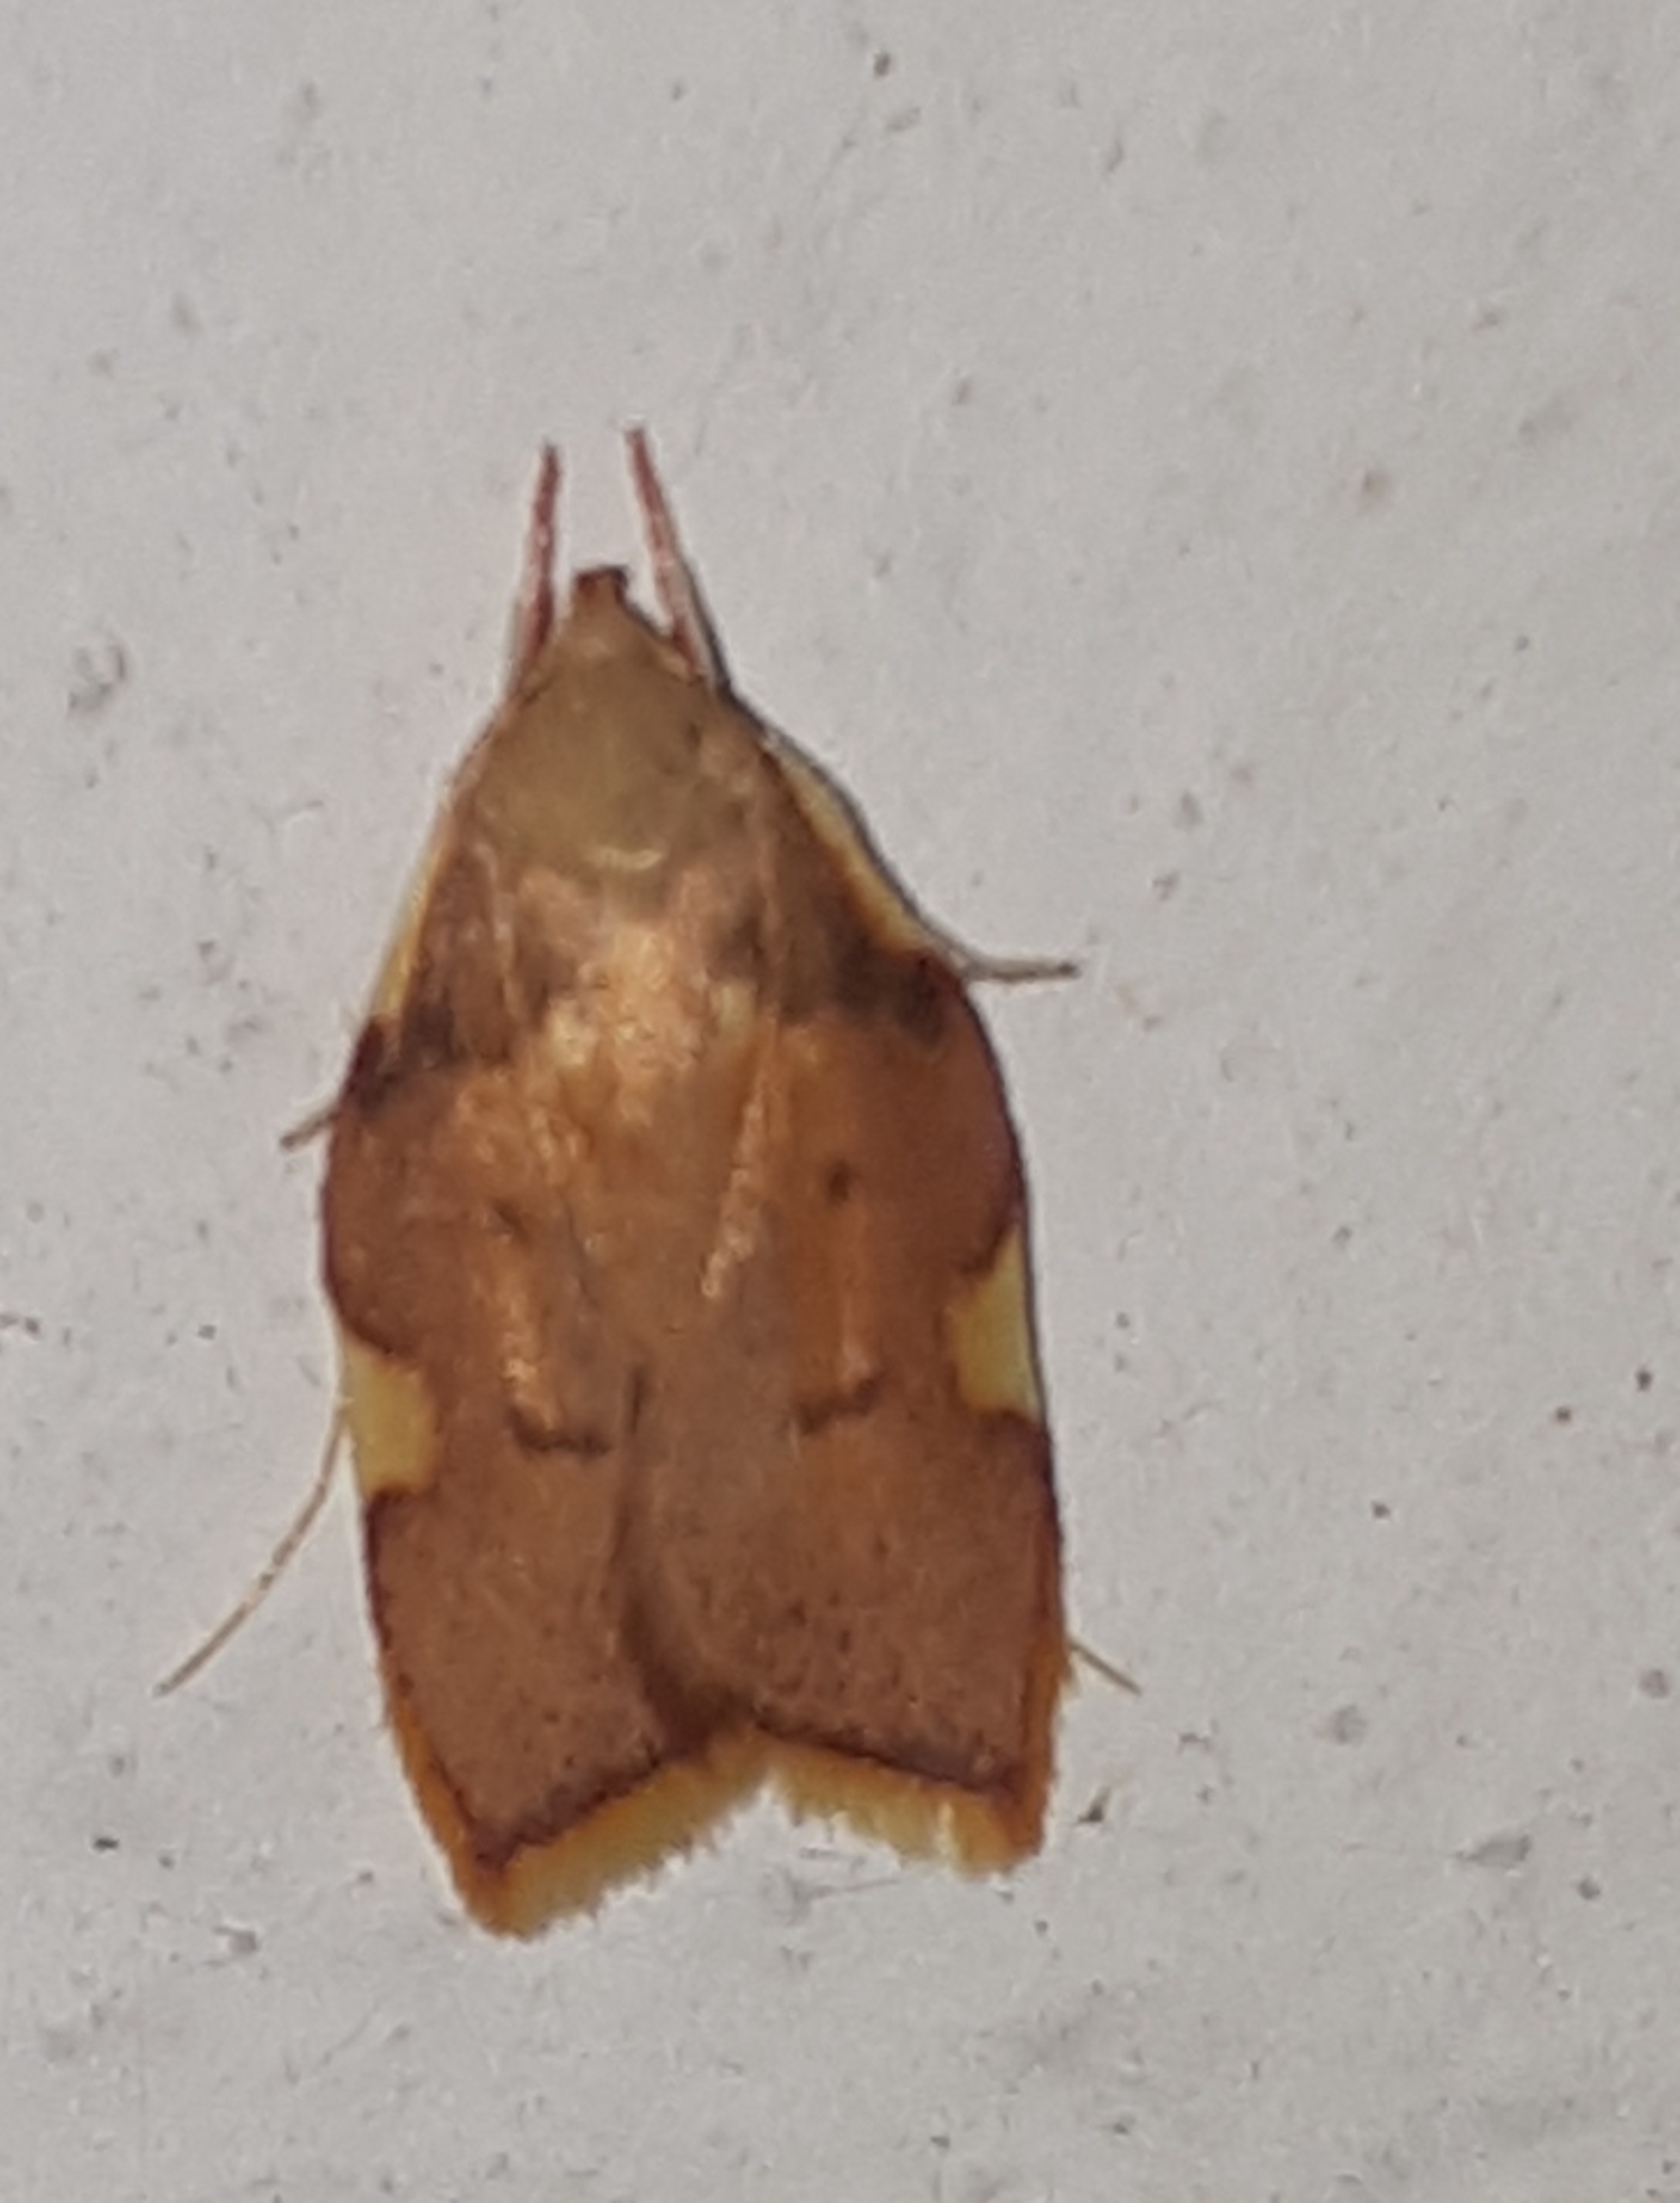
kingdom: Animalia
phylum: Arthropoda
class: Insecta
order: Lepidoptera
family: Peleopodidae
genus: Carcina
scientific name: Carcina quercana
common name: Egeprydvinge
